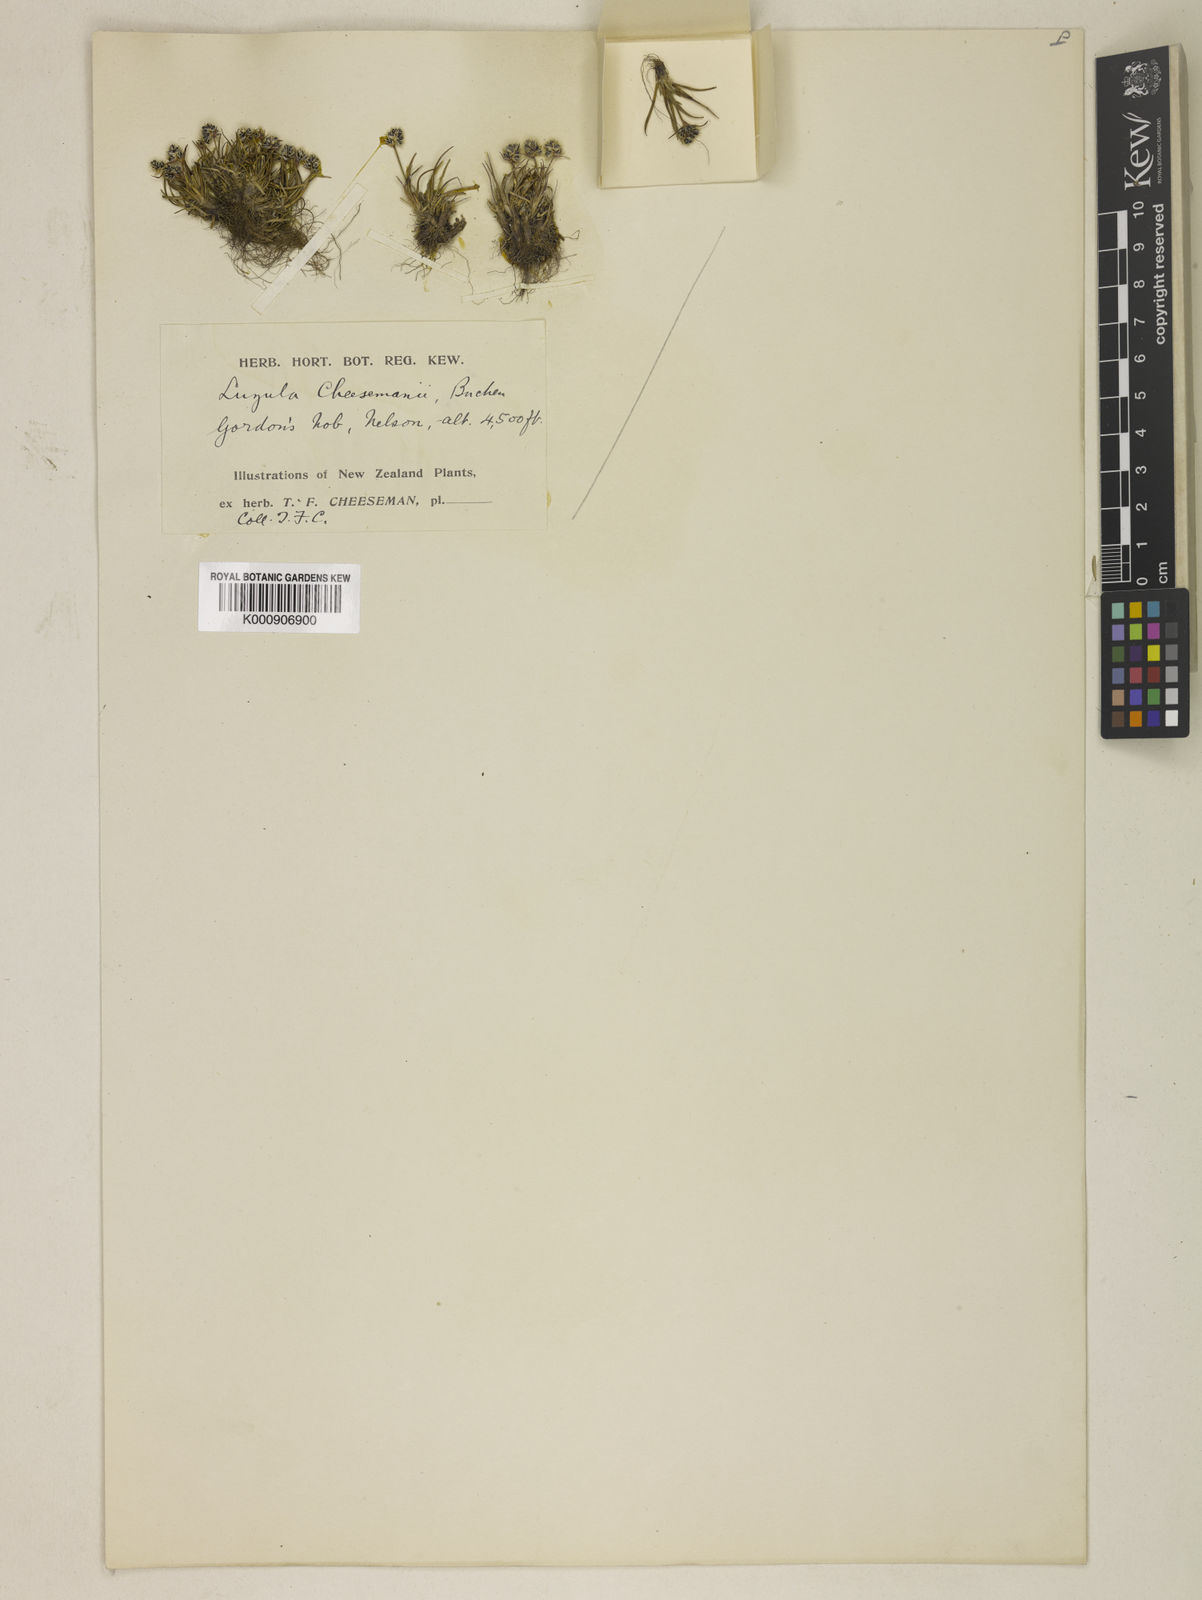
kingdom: Plantae
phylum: Tracheophyta
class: Liliopsida
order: Poales
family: Juncaceae
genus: Luzula
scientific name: Luzula colensoi
